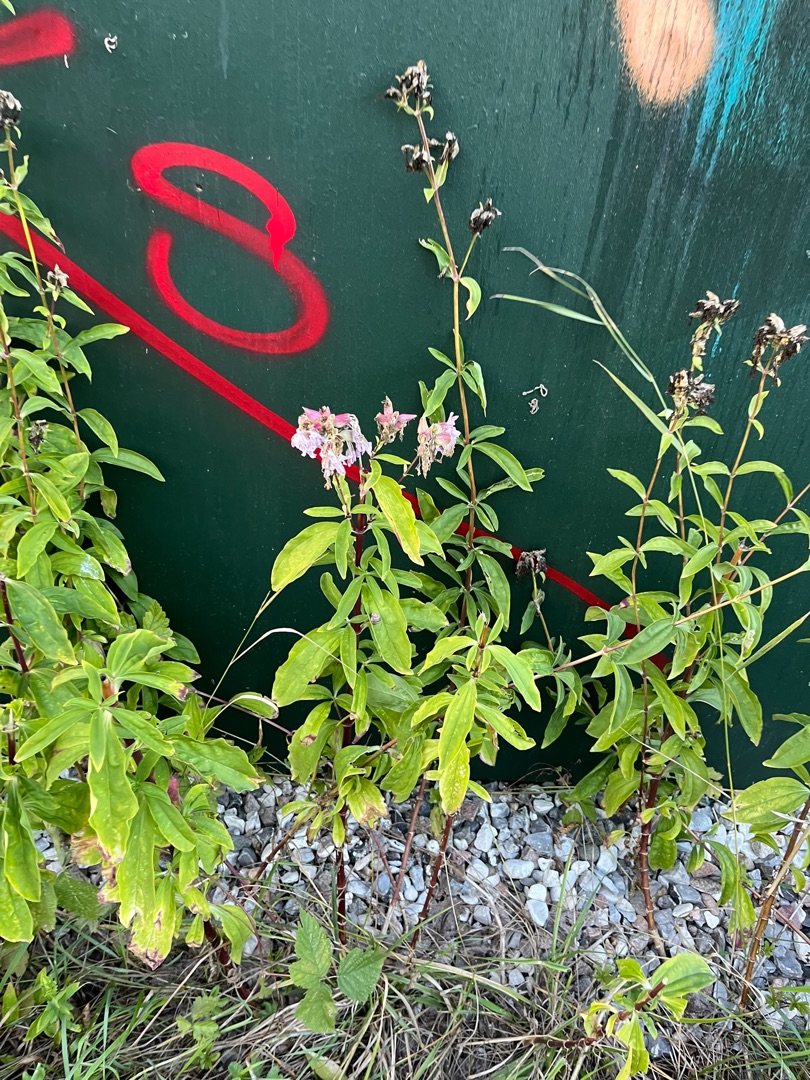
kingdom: Plantae
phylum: Tracheophyta
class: Magnoliopsida
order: Caryophyllales
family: Caryophyllaceae
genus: Saponaria
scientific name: Saponaria officinalis
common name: Sæbeurt
